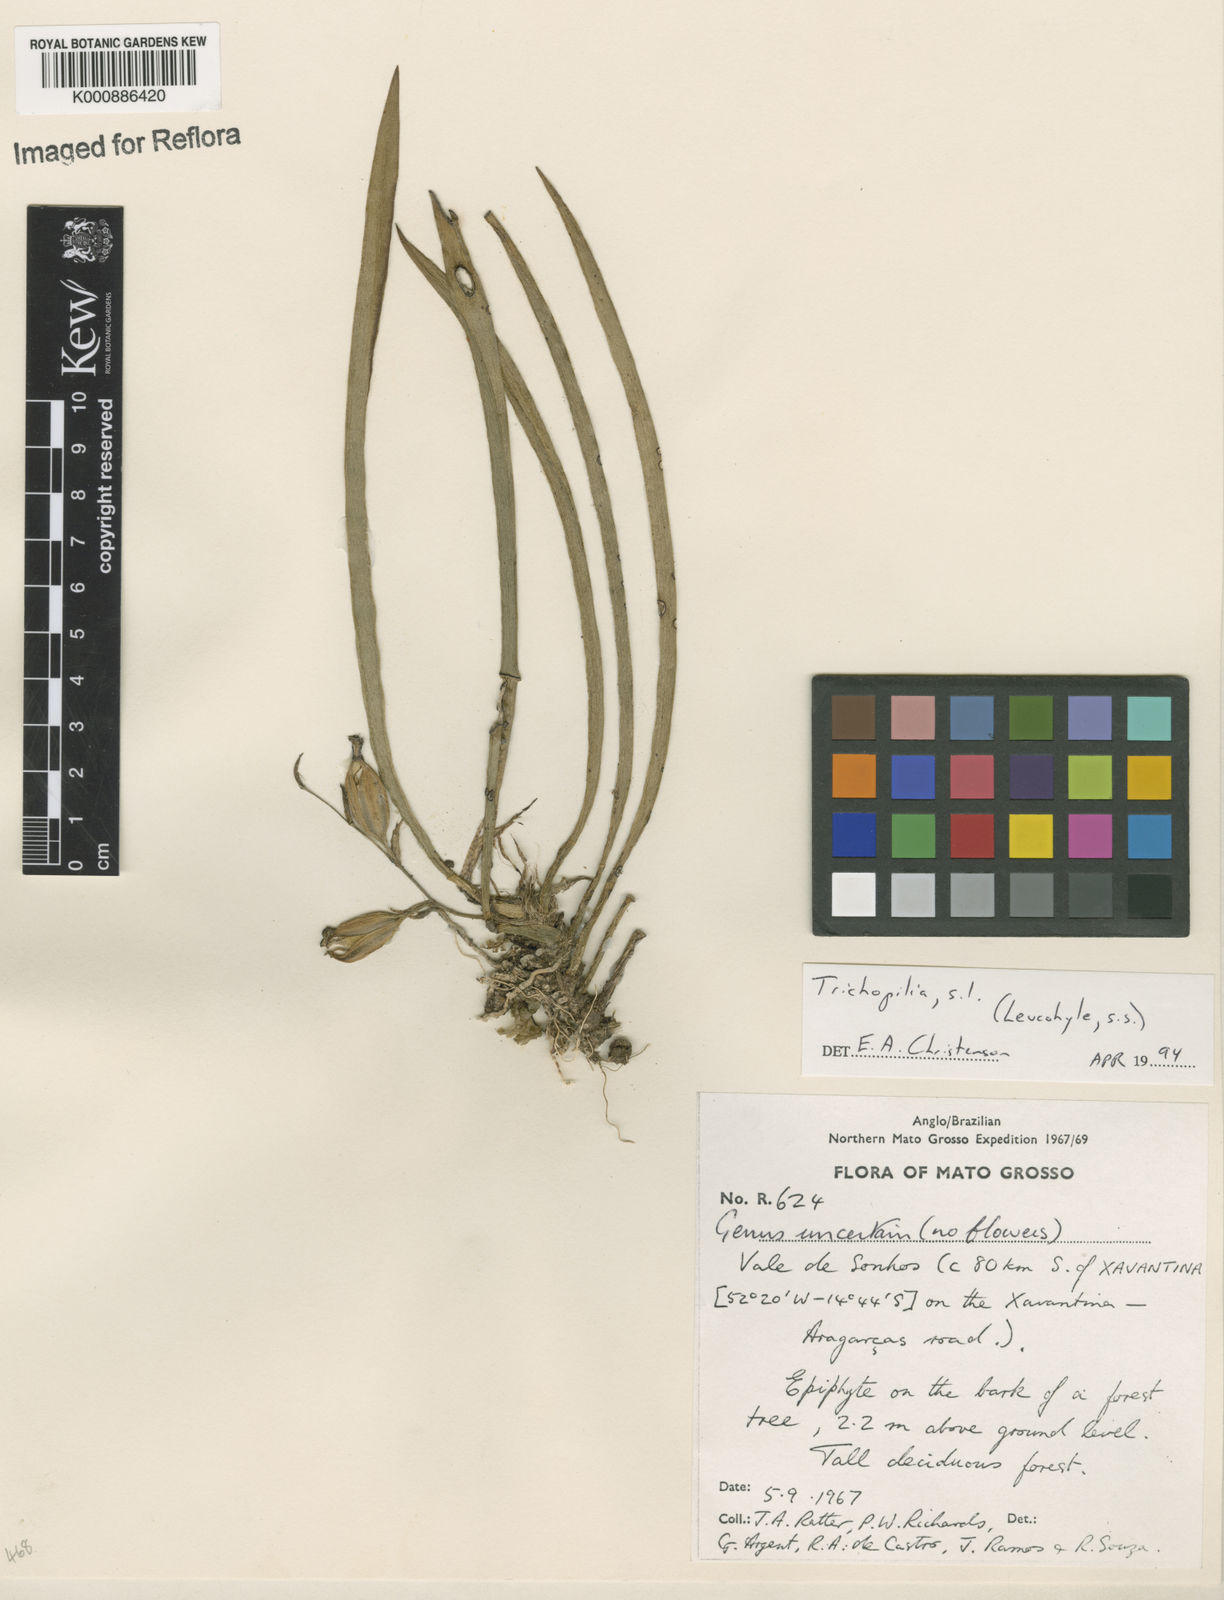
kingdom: Plantae
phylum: Tracheophyta
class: Liliopsida
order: Asparagales
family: Orchidaceae
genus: Trichopilia
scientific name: Trichopilia
